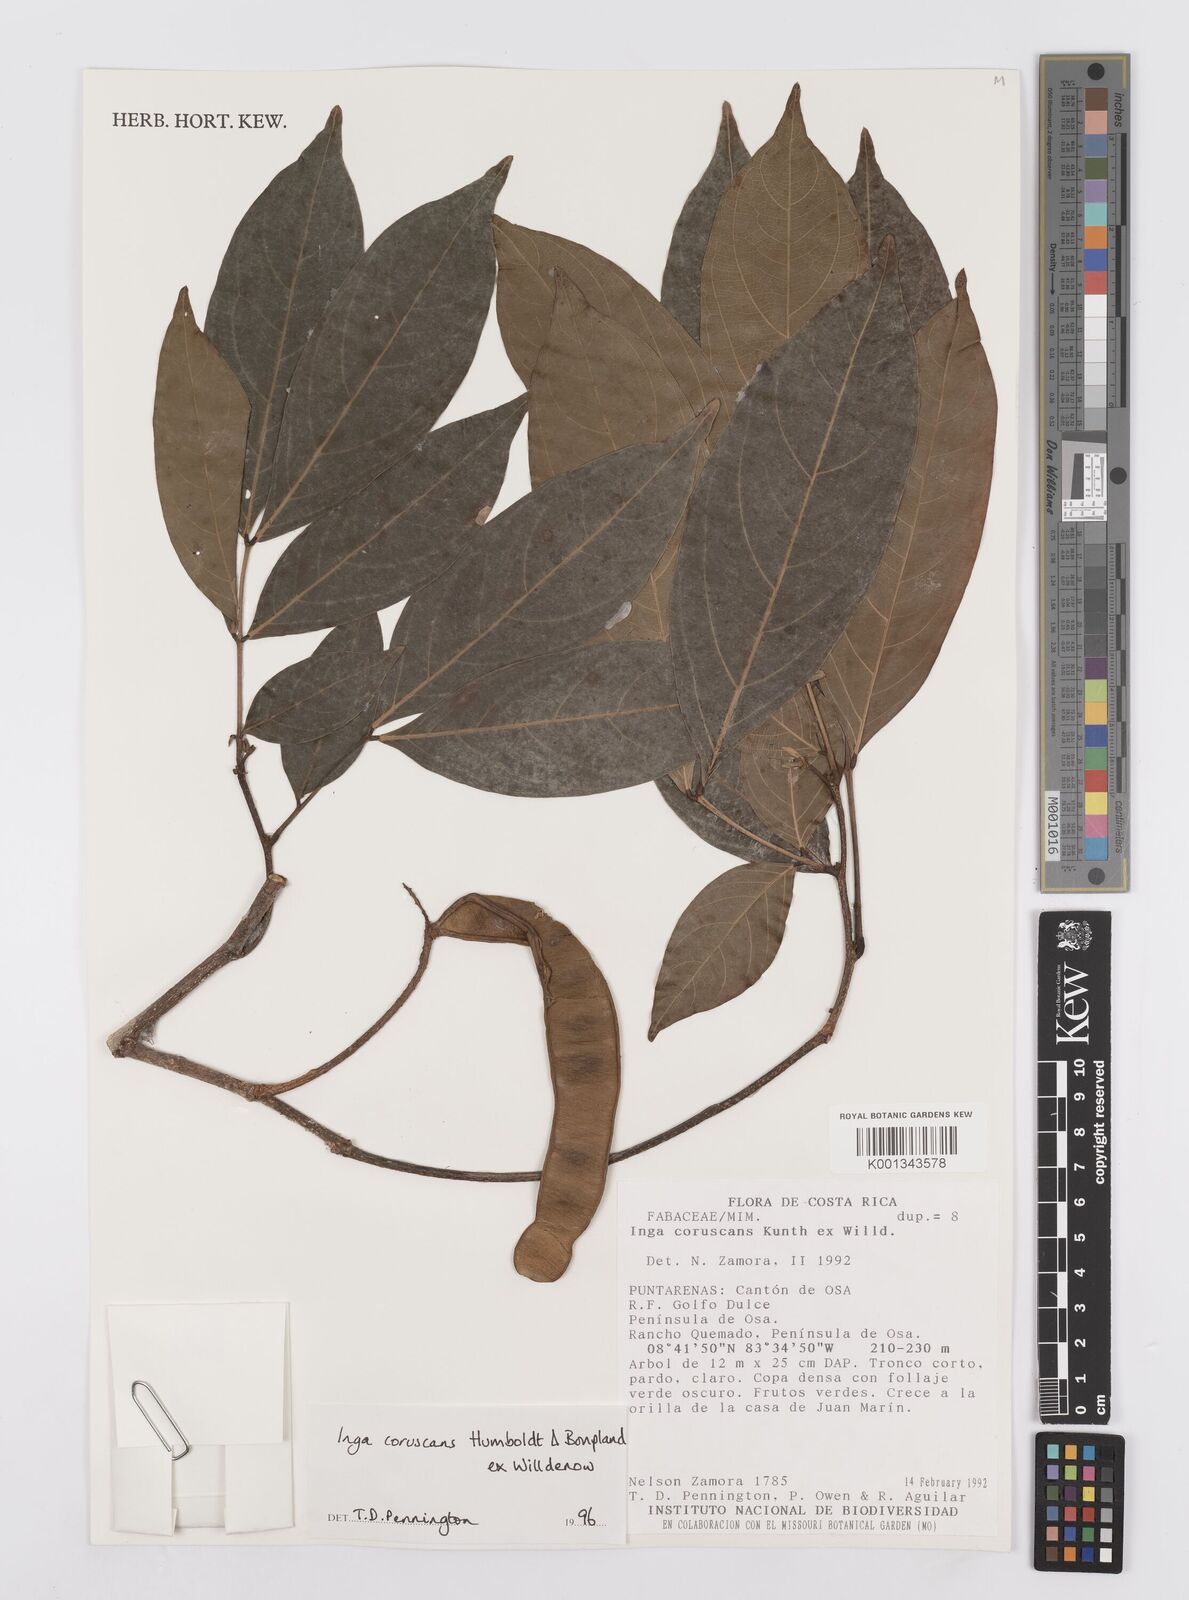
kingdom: Plantae
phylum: Tracheophyta
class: Magnoliopsida
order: Fabales
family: Fabaceae
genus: Inga
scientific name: Inga coruscans
